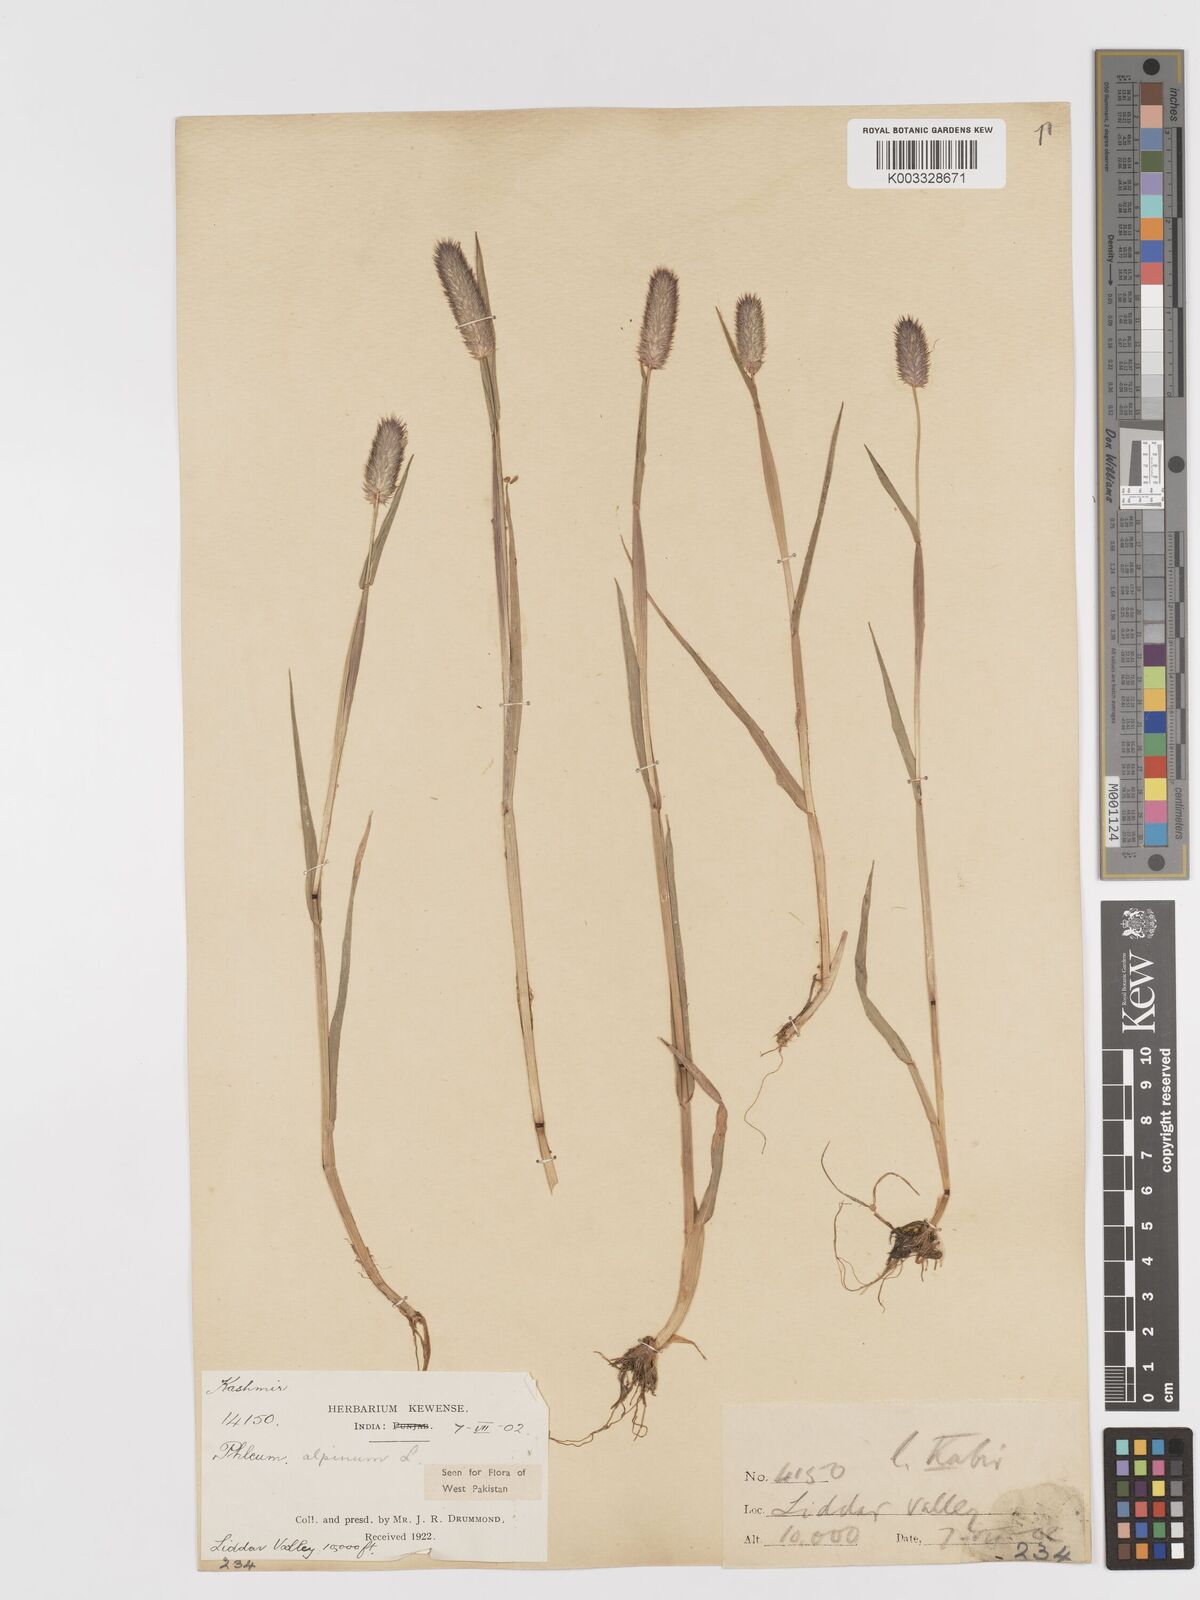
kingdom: Plantae
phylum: Tracheophyta
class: Liliopsida
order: Poales
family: Poaceae
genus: Phleum
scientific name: Phleum alpinum
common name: Alpine cat's-tail
